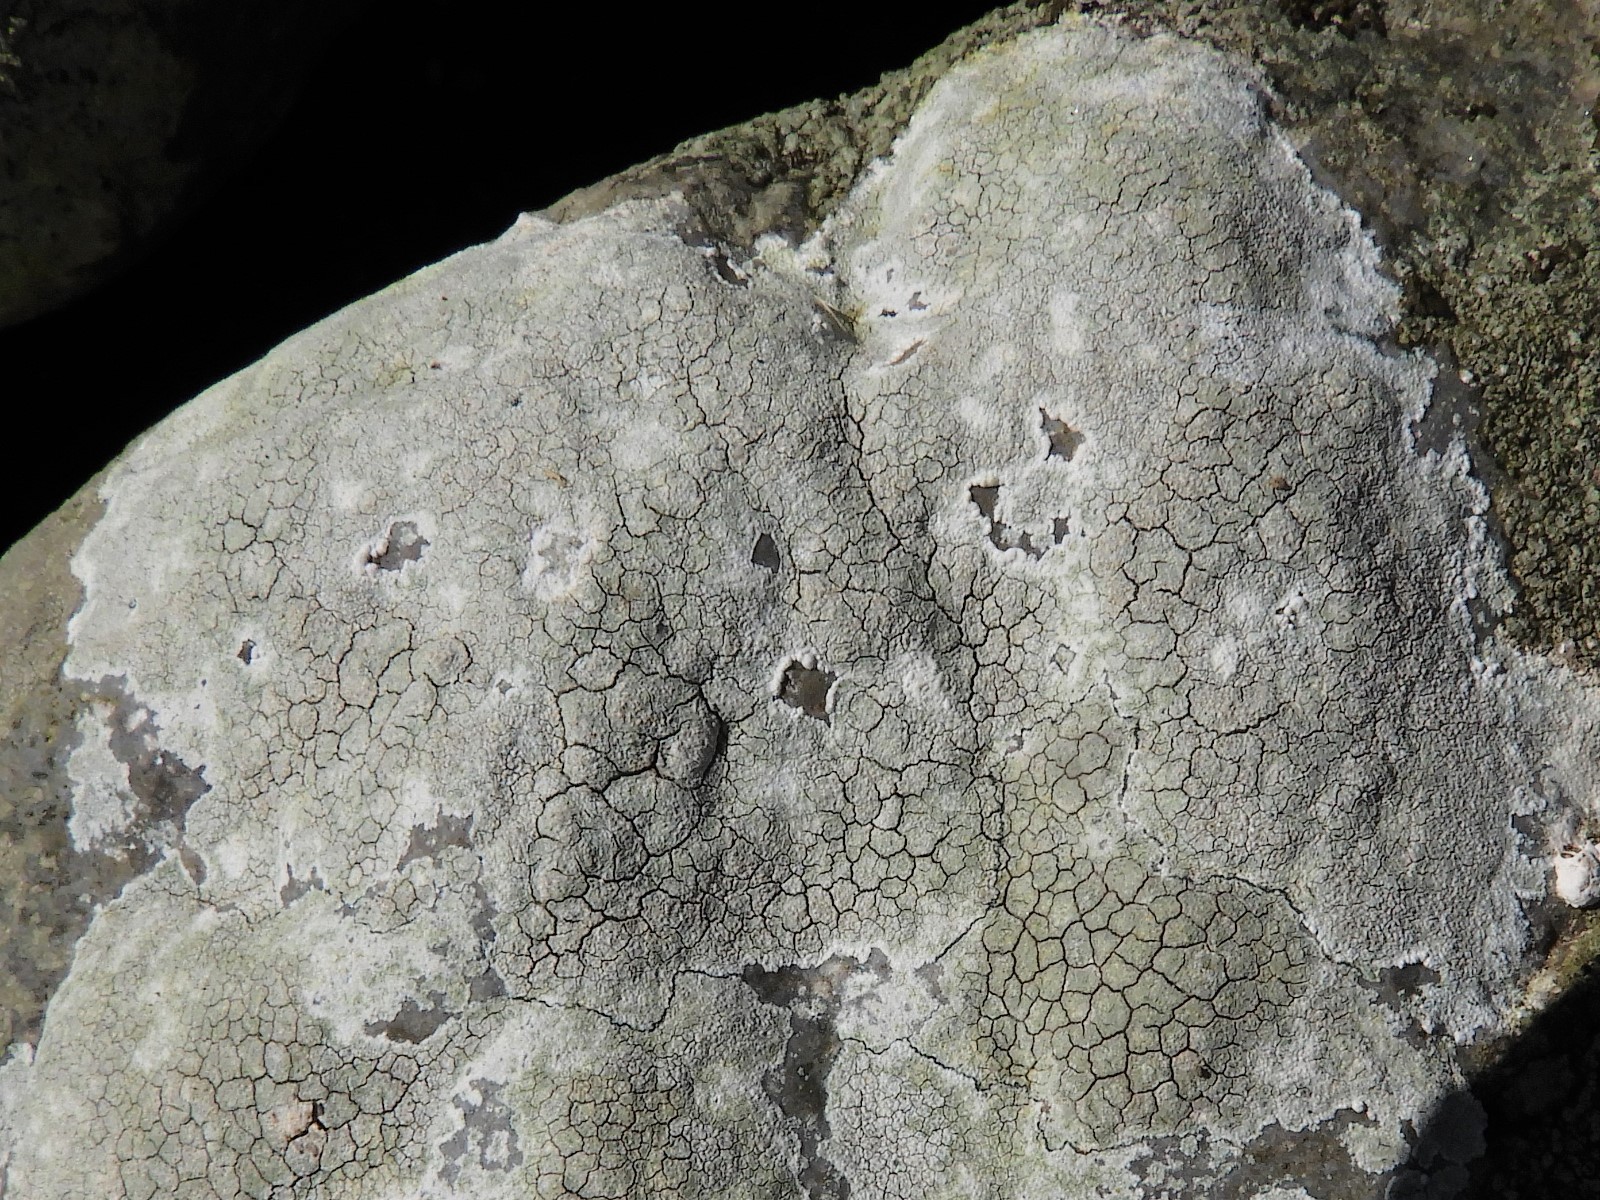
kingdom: Fungi
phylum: Ascomycota
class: Lecanoromycetes
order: Lecanorales
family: Lecanoraceae
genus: Glaucomaria
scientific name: Glaucomaria rupicola
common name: stengærde-kantskivelav
